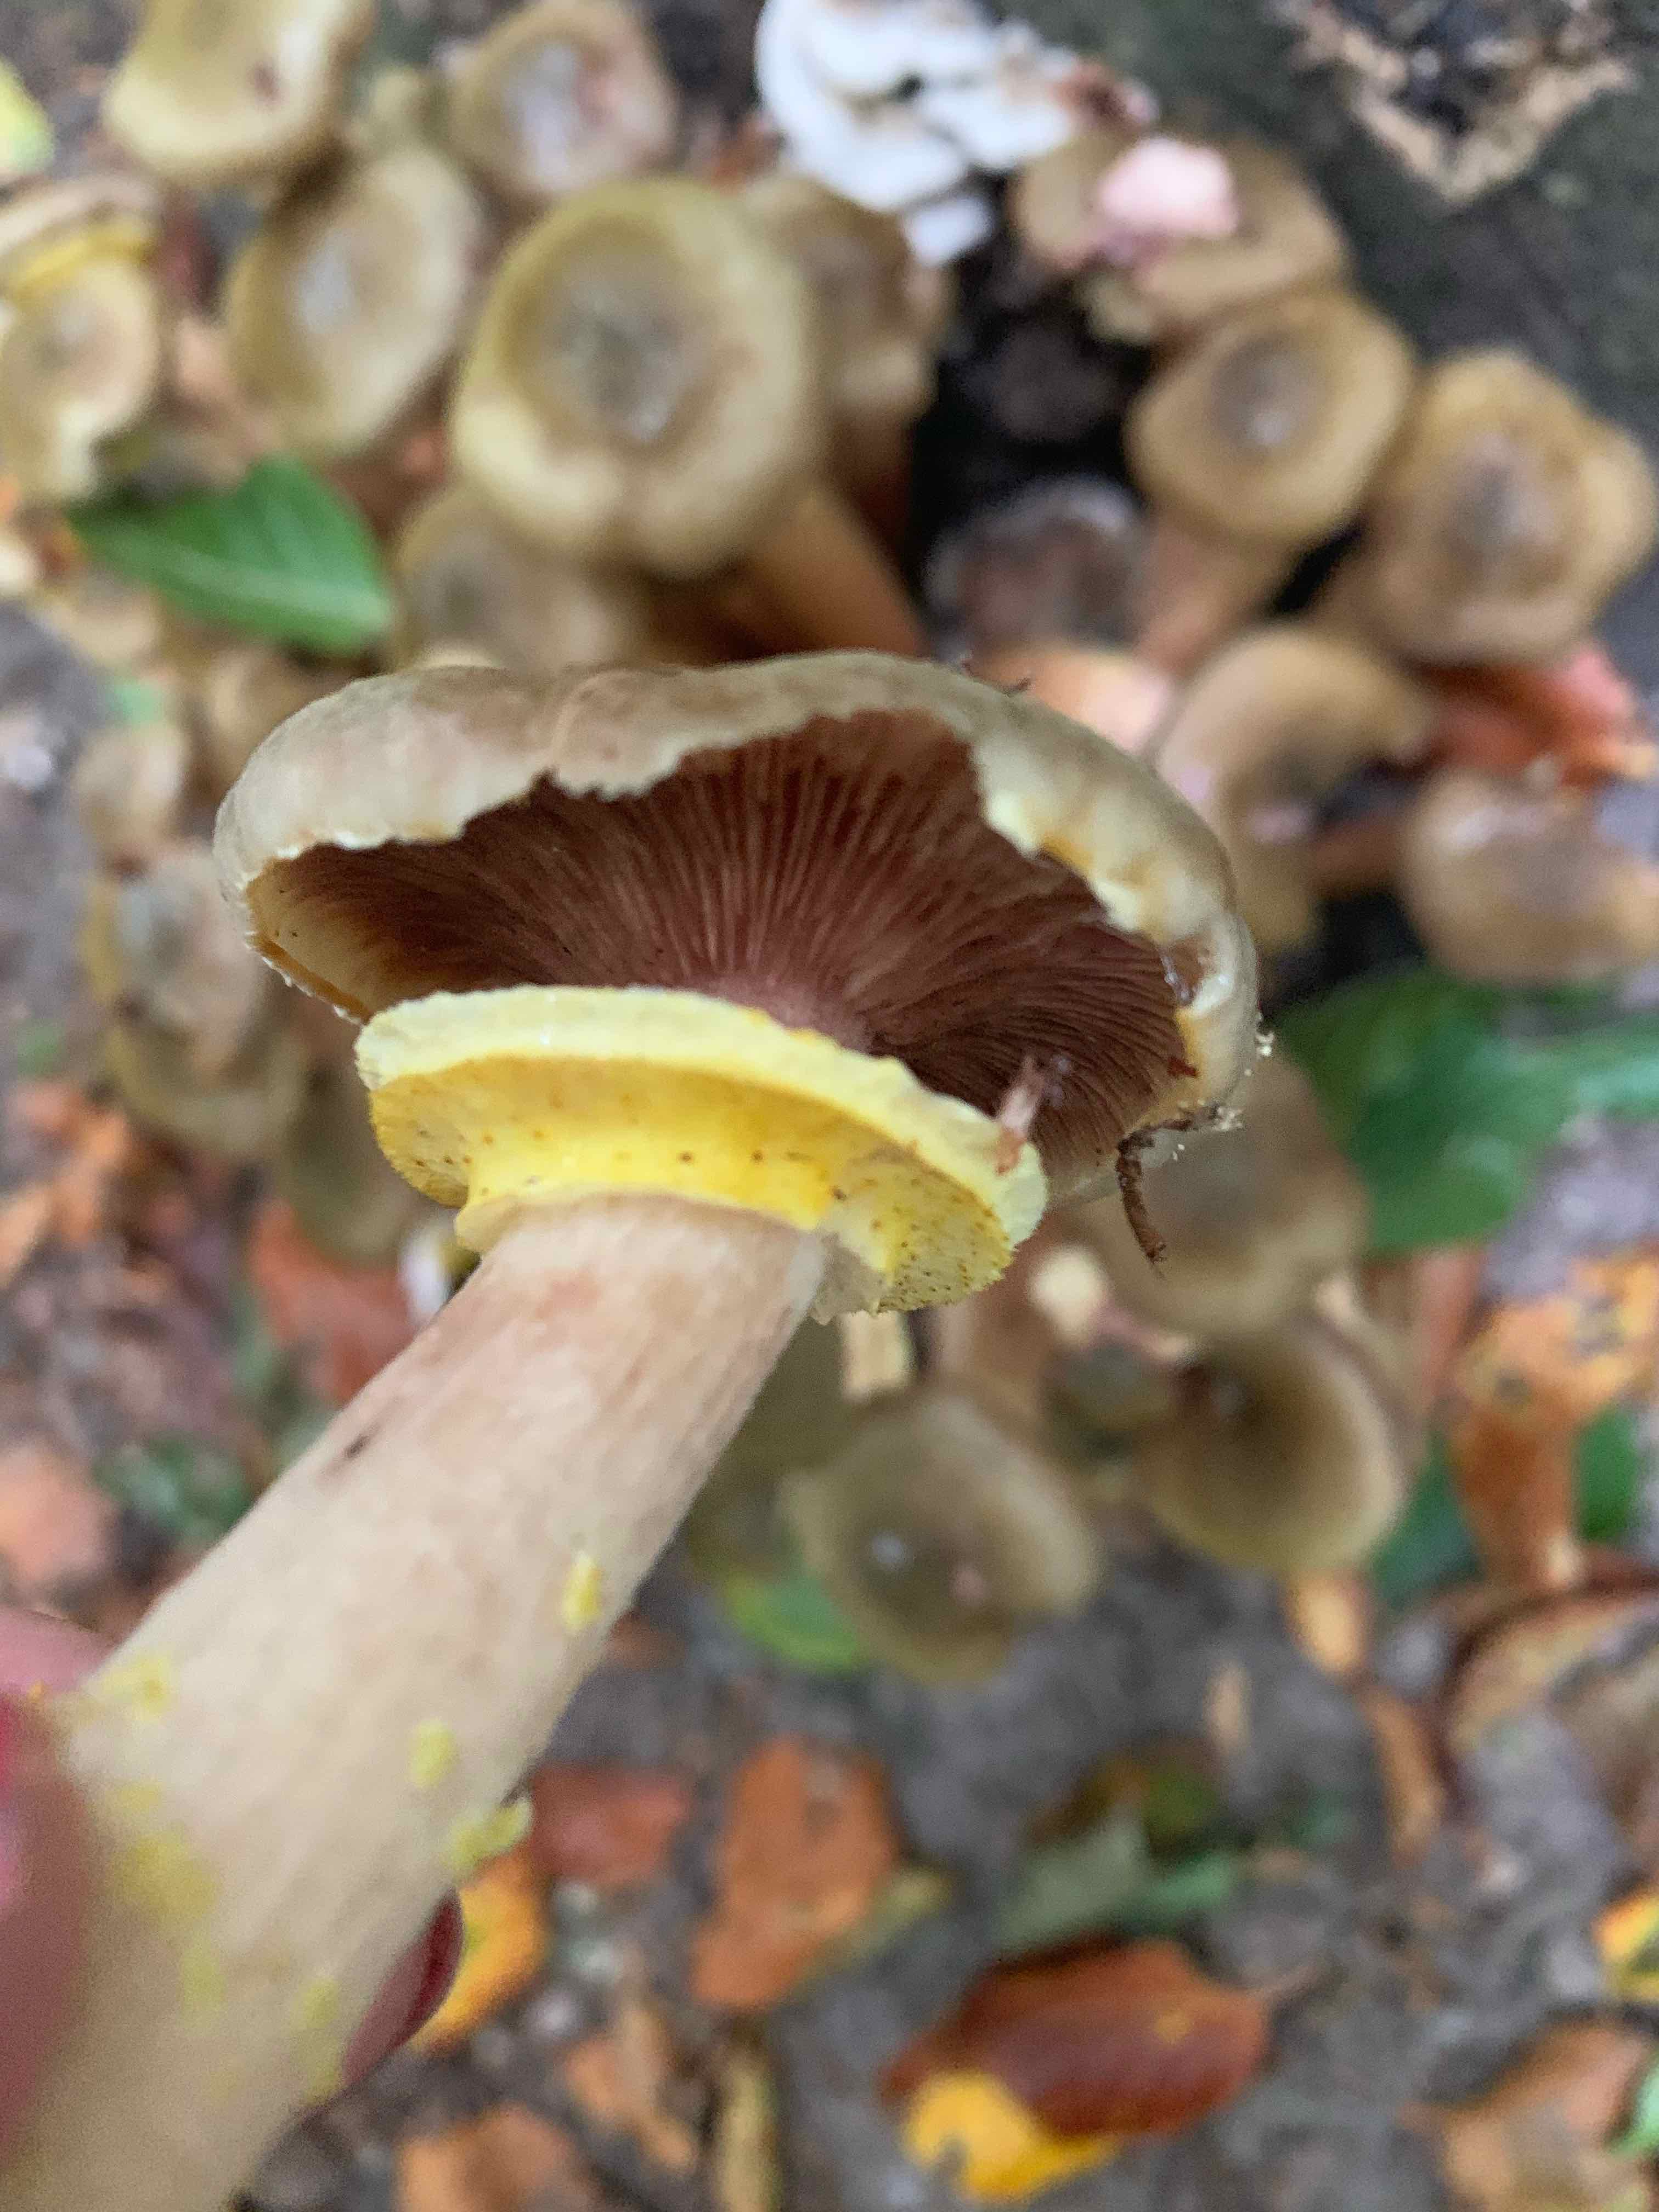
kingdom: Fungi
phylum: Basidiomycota
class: Agaricomycetes
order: Agaricales
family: Physalacriaceae
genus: Armillaria
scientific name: Armillaria lutea
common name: køllestokket honningsvamp
